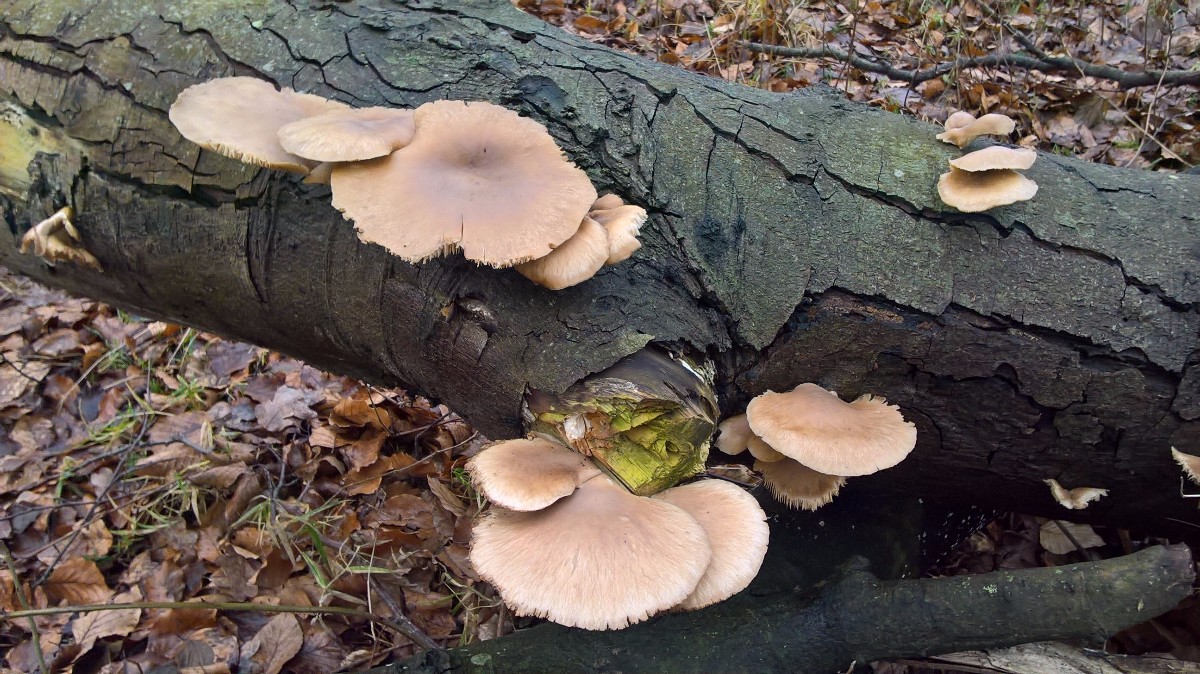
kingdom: Fungi
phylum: Basidiomycota
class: Agaricomycetes
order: Agaricales
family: Pleurotaceae
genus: Pleurotus
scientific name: Pleurotus ostreatus
